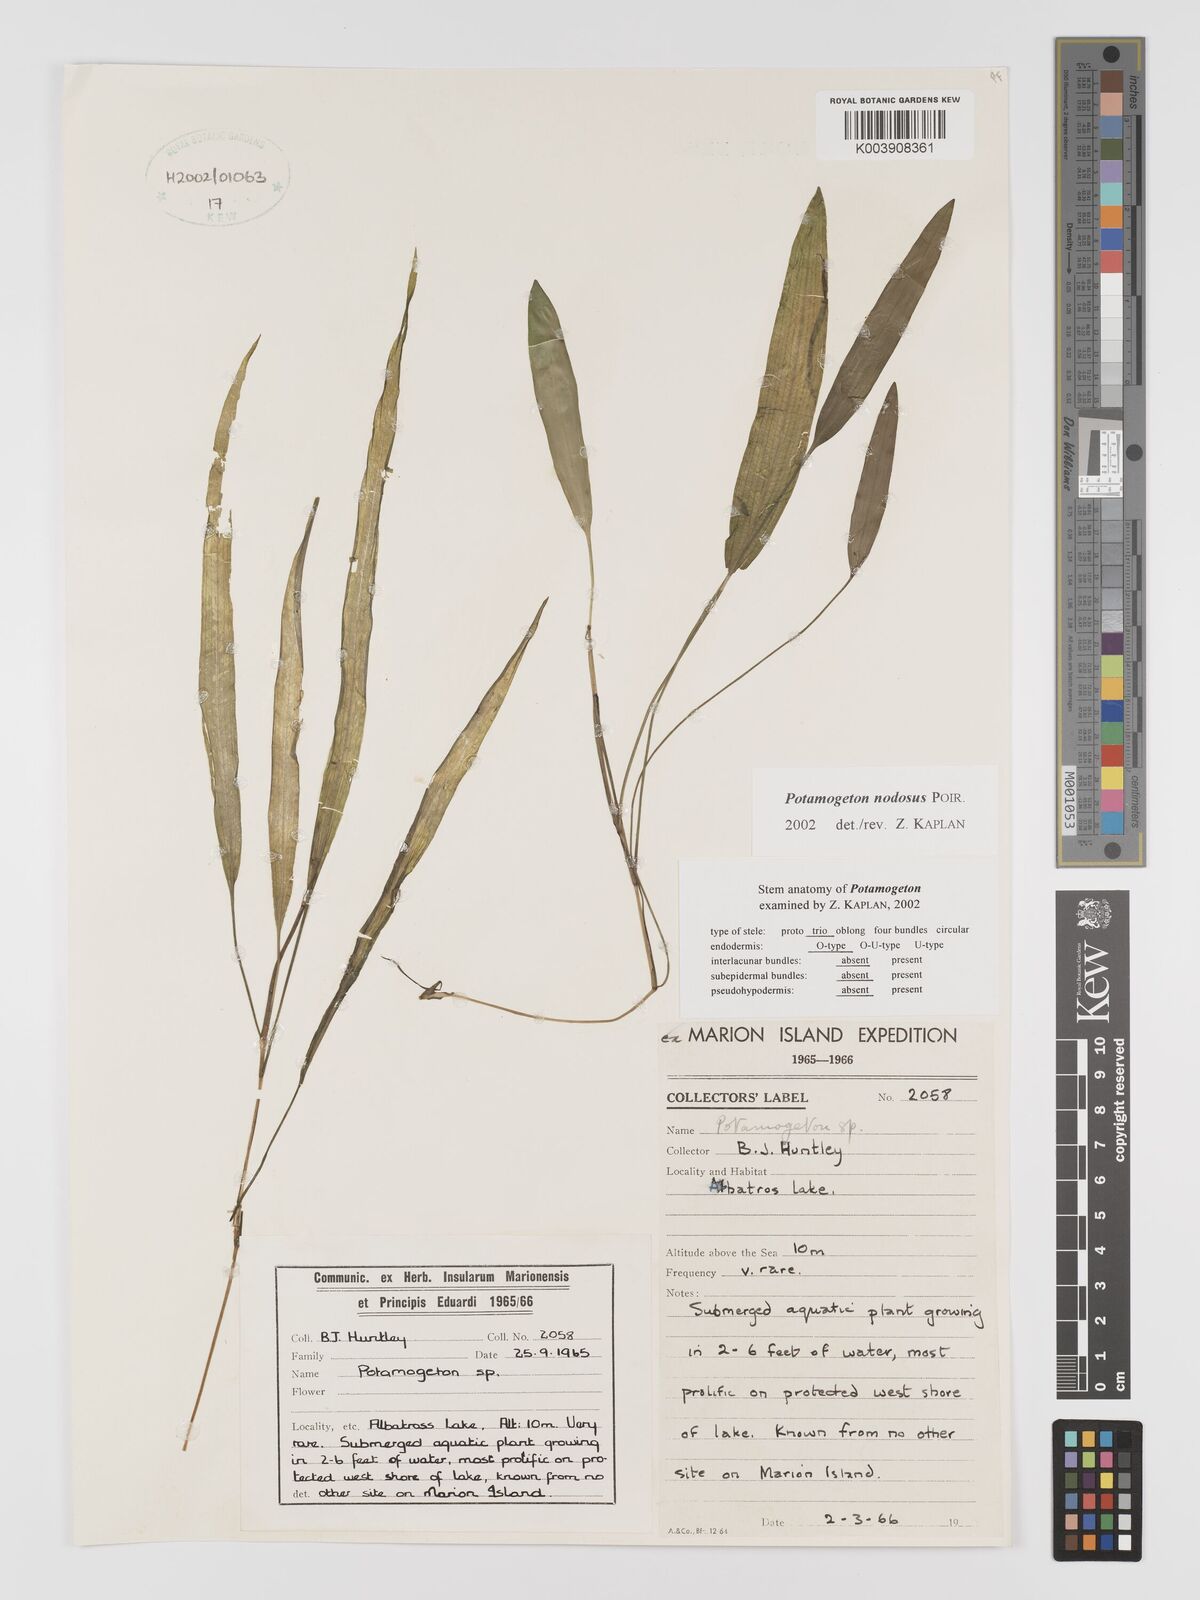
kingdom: Plantae
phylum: Tracheophyta
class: Liliopsida
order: Alismatales
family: Potamogetonaceae
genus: Potamogeton
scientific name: Potamogeton nodosus
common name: Loddon pondweed
